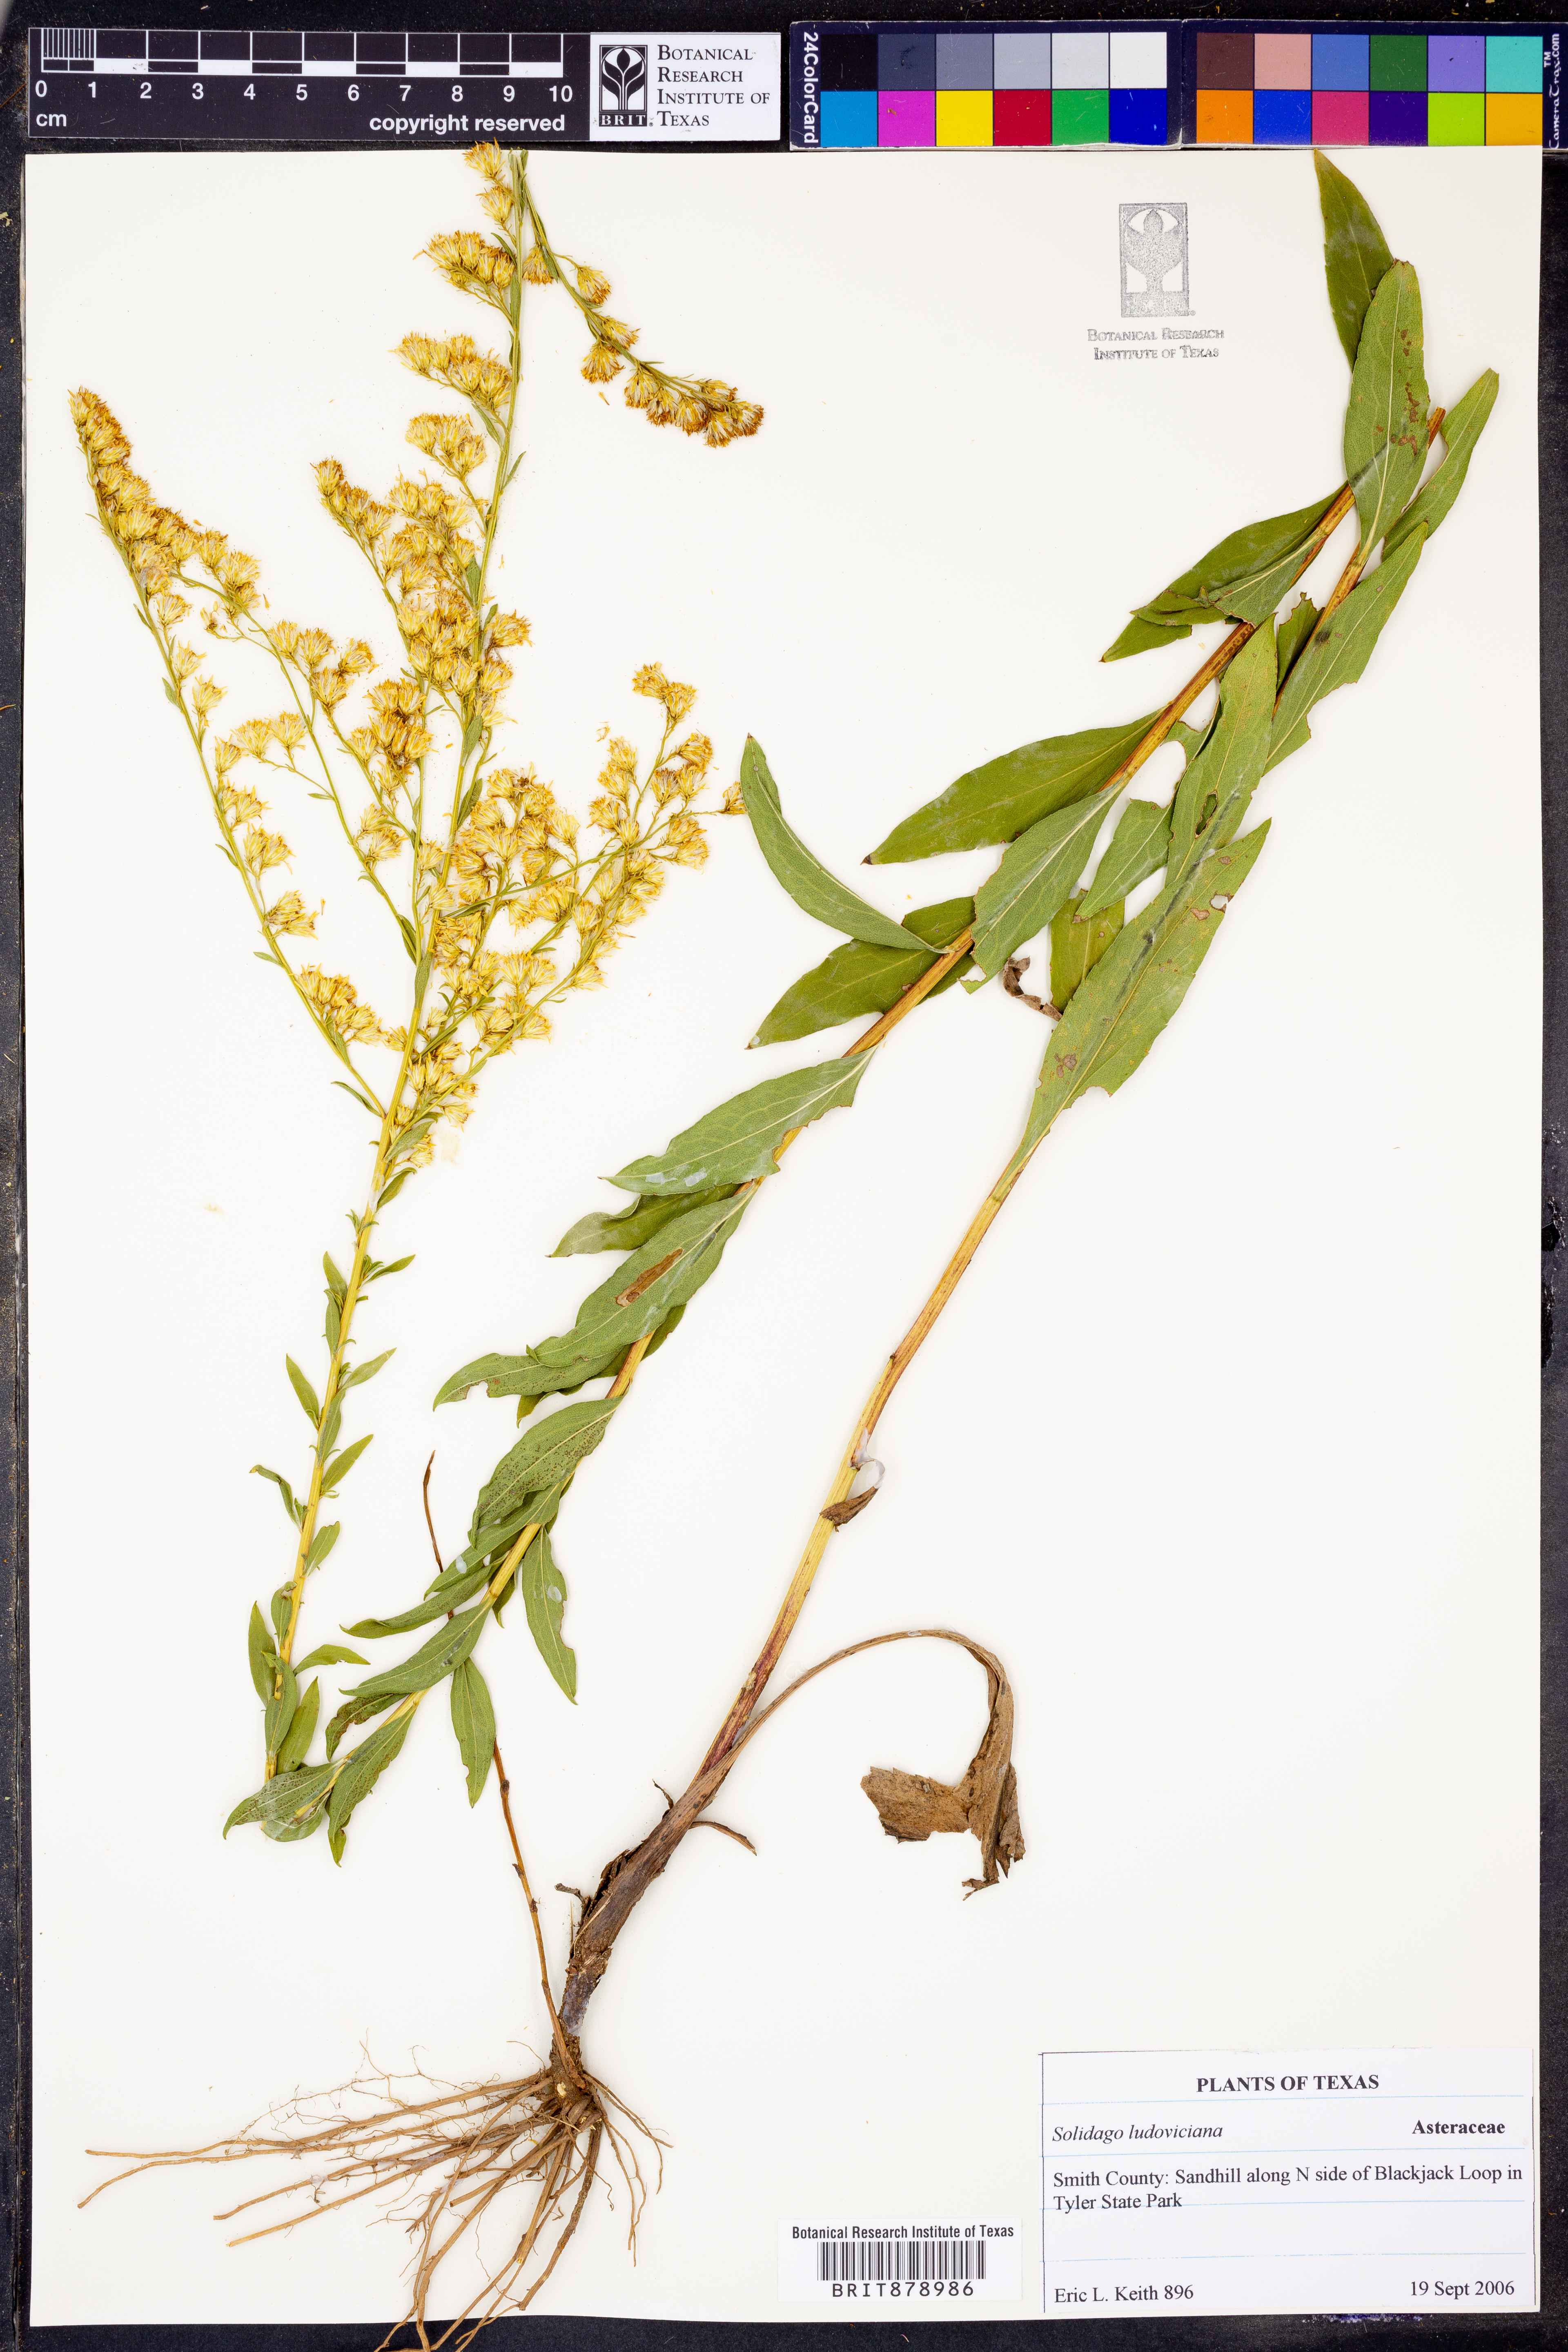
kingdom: Plantae
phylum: Tracheophyta
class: Magnoliopsida
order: Asterales
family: Asteraceae
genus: Solidago
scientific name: Solidago ludoviciana
